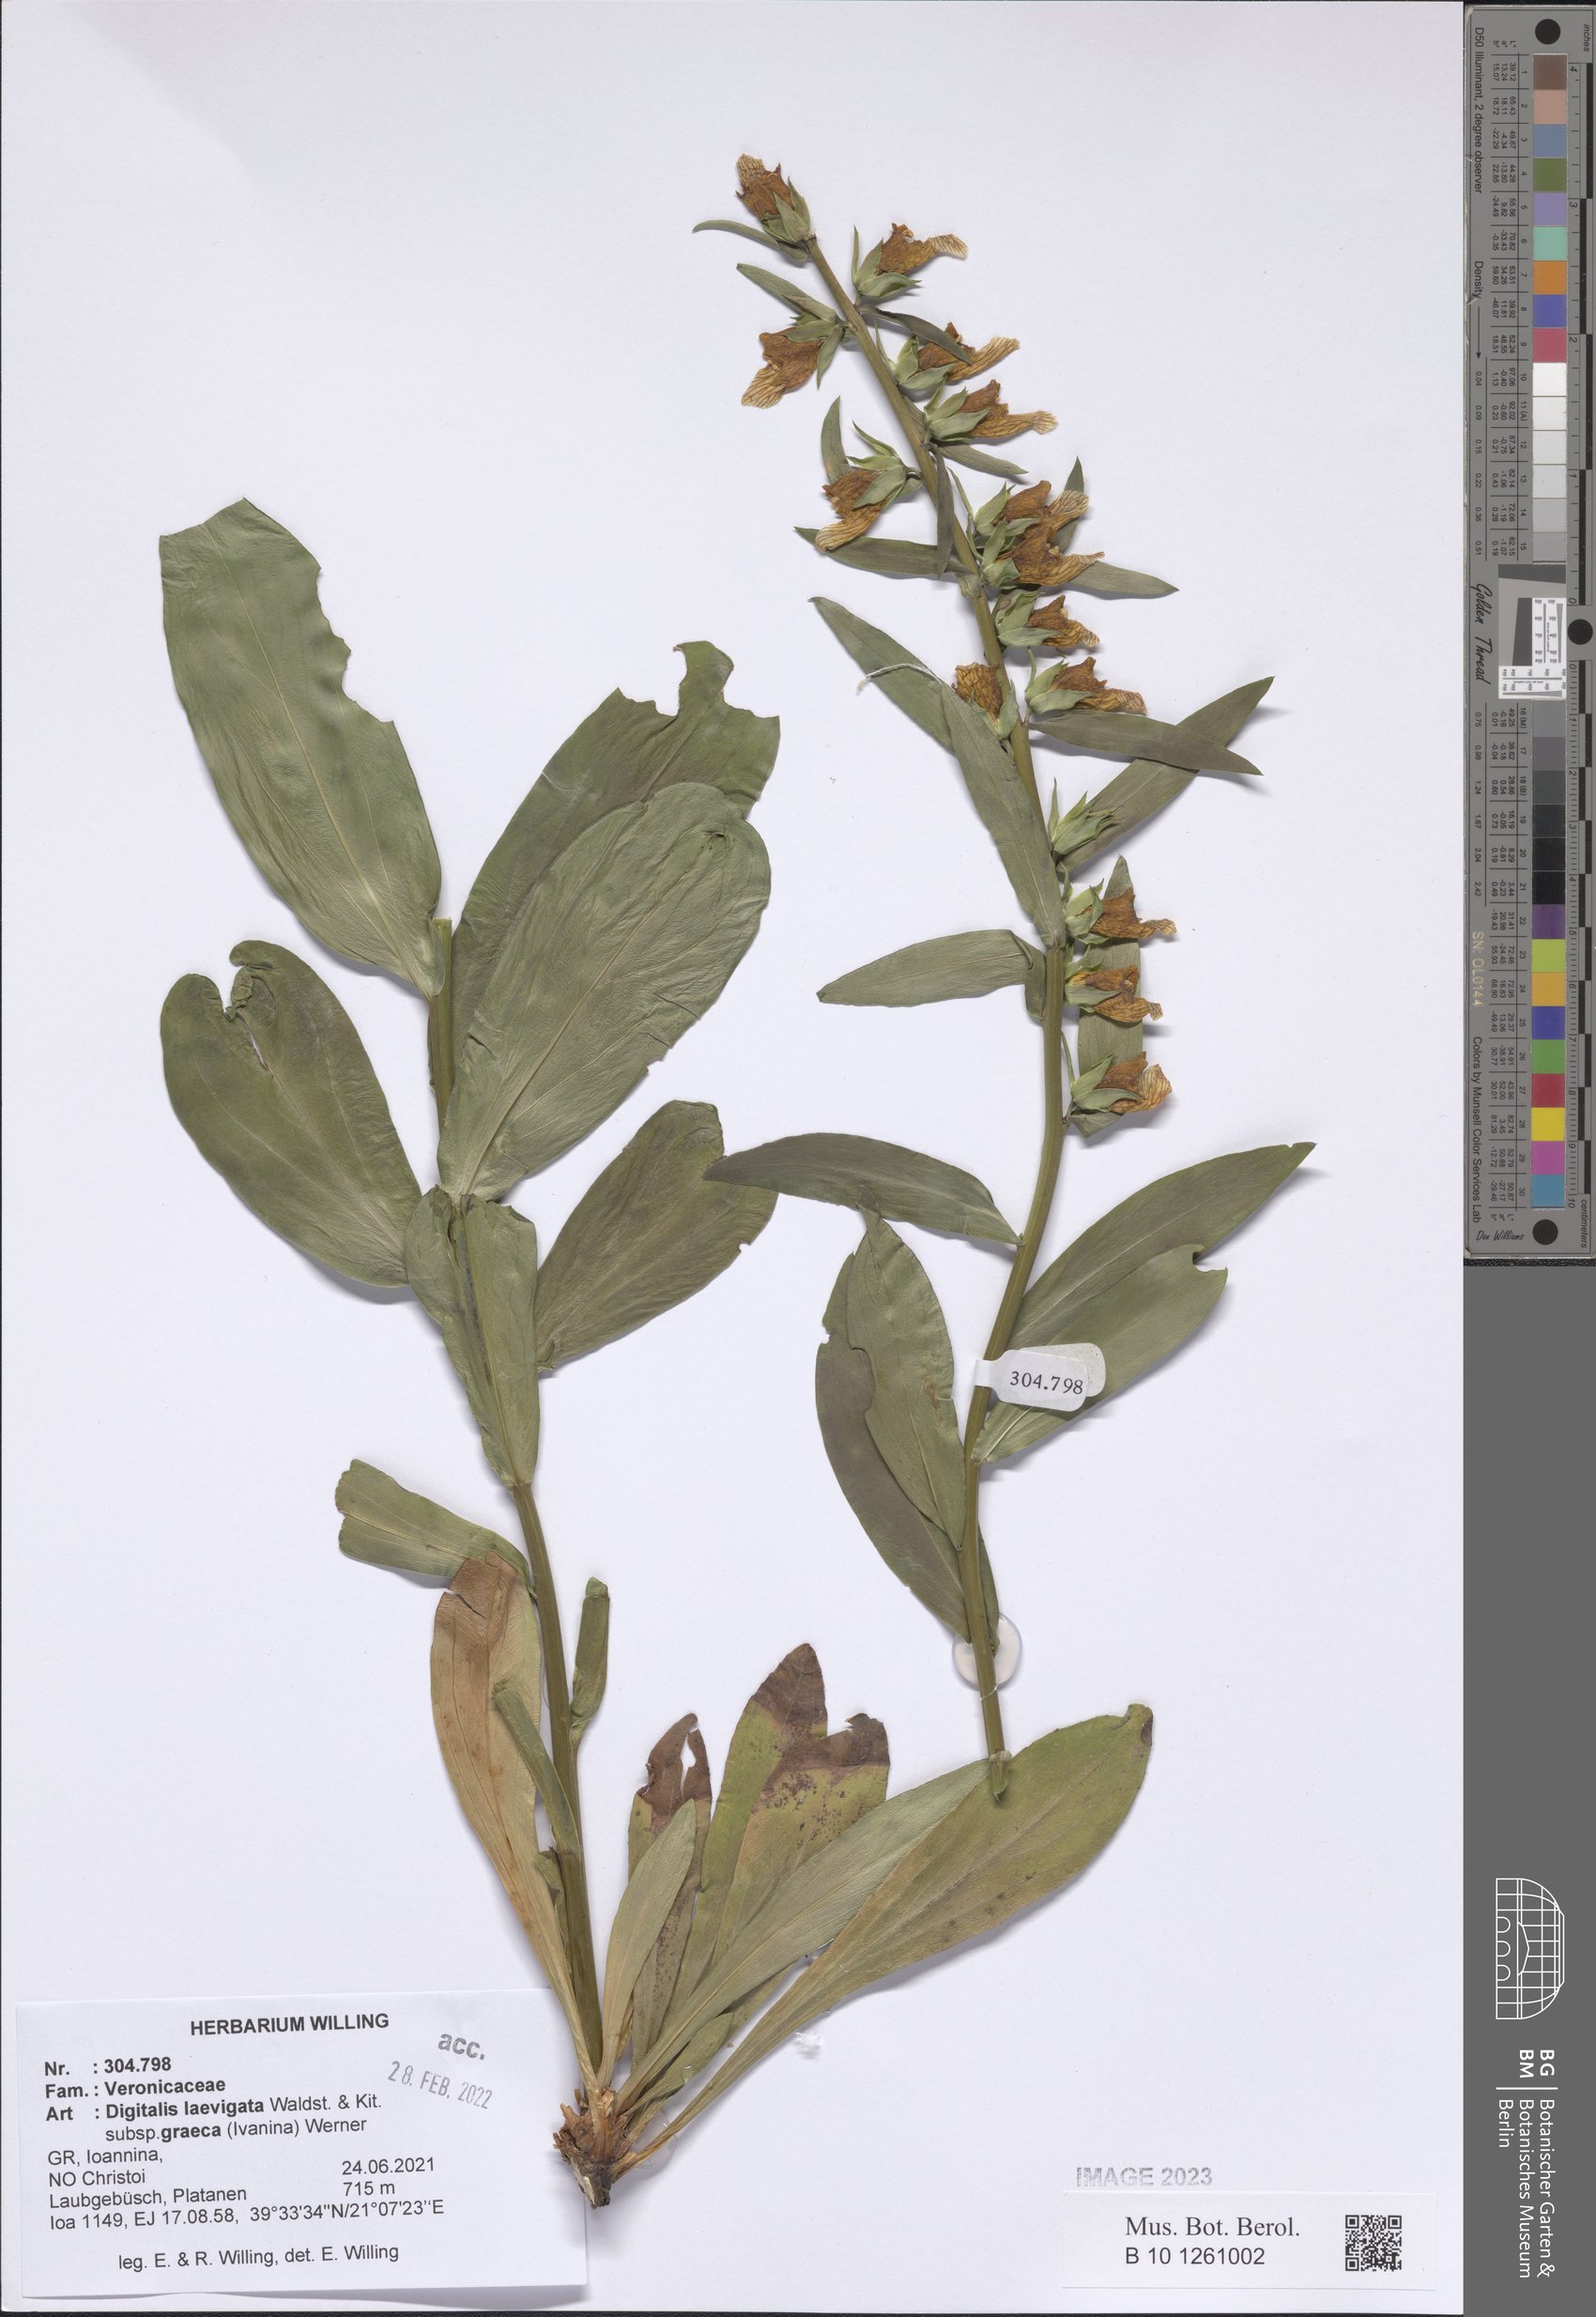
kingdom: Plantae
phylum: Tracheophyta
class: Magnoliopsida
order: Lamiales
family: Plantaginaceae
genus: Digitalis
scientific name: Digitalis laevigata
